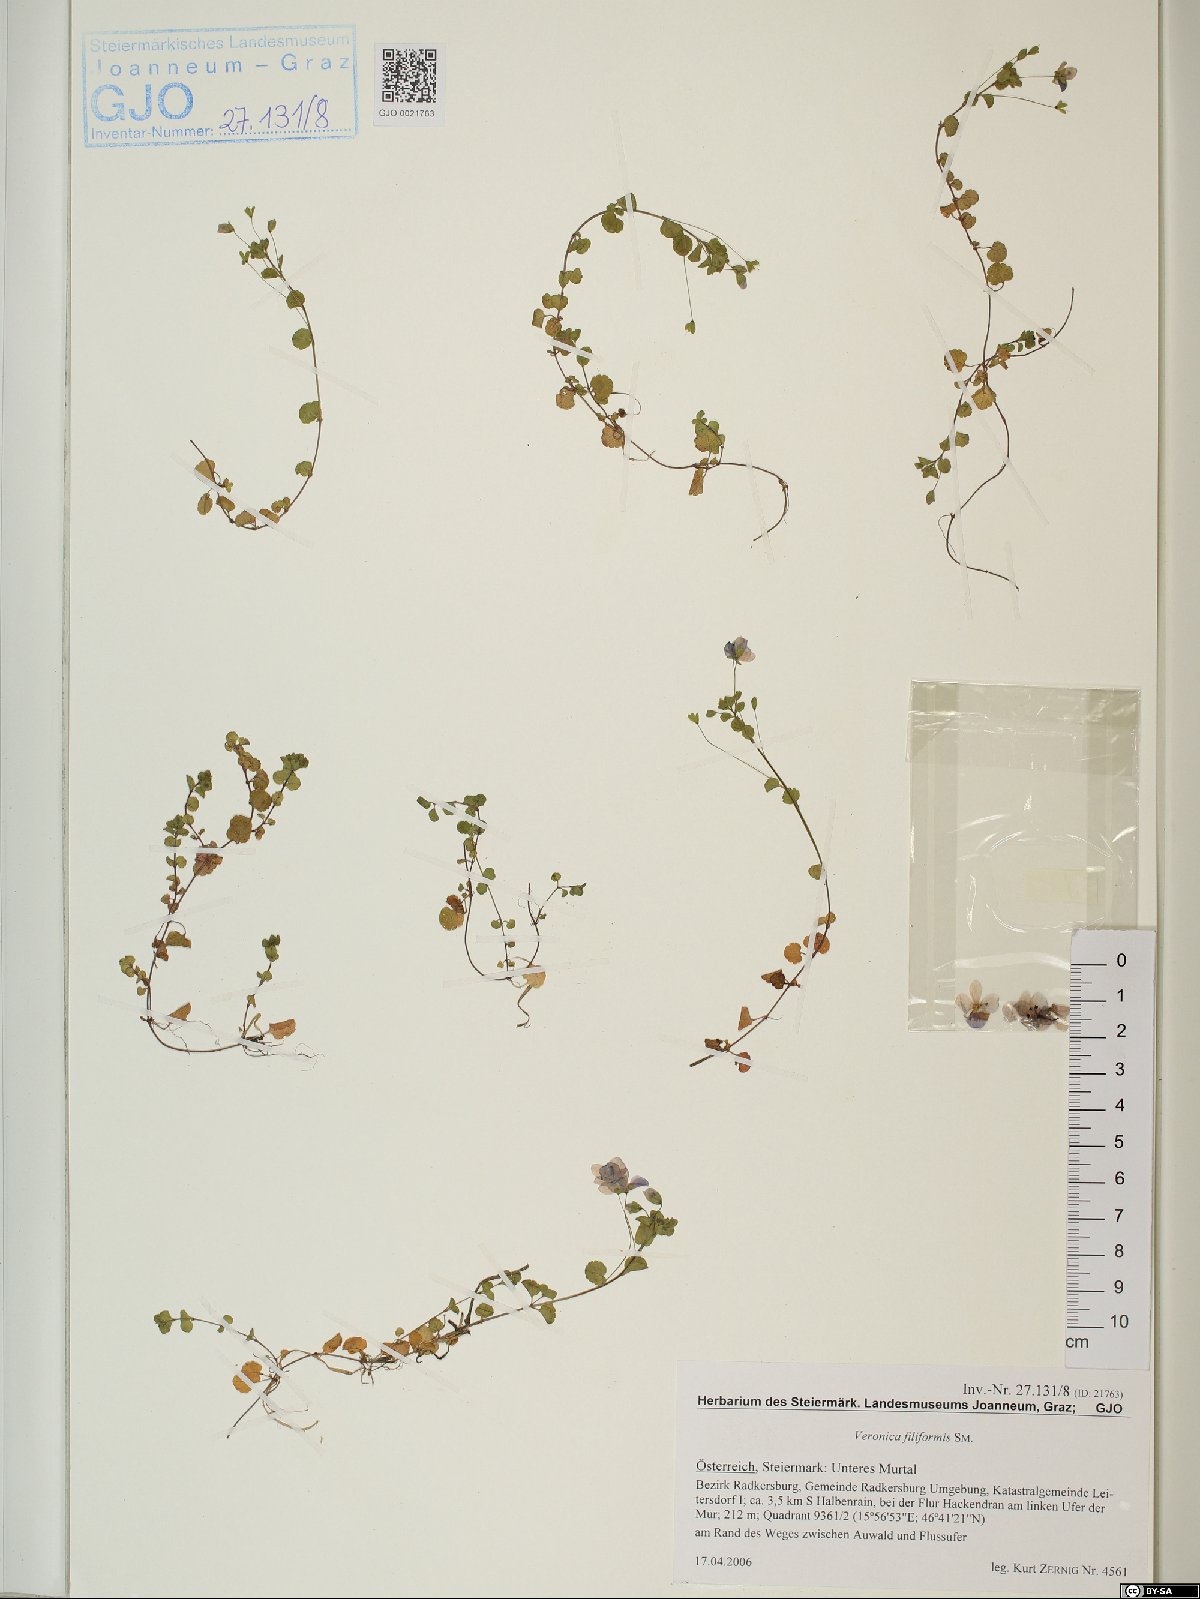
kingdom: Plantae
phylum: Tracheophyta
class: Magnoliopsida
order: Lamiales
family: Plantaginaceae
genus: Veronica
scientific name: Veronica filiformis
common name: Slender speedwell
